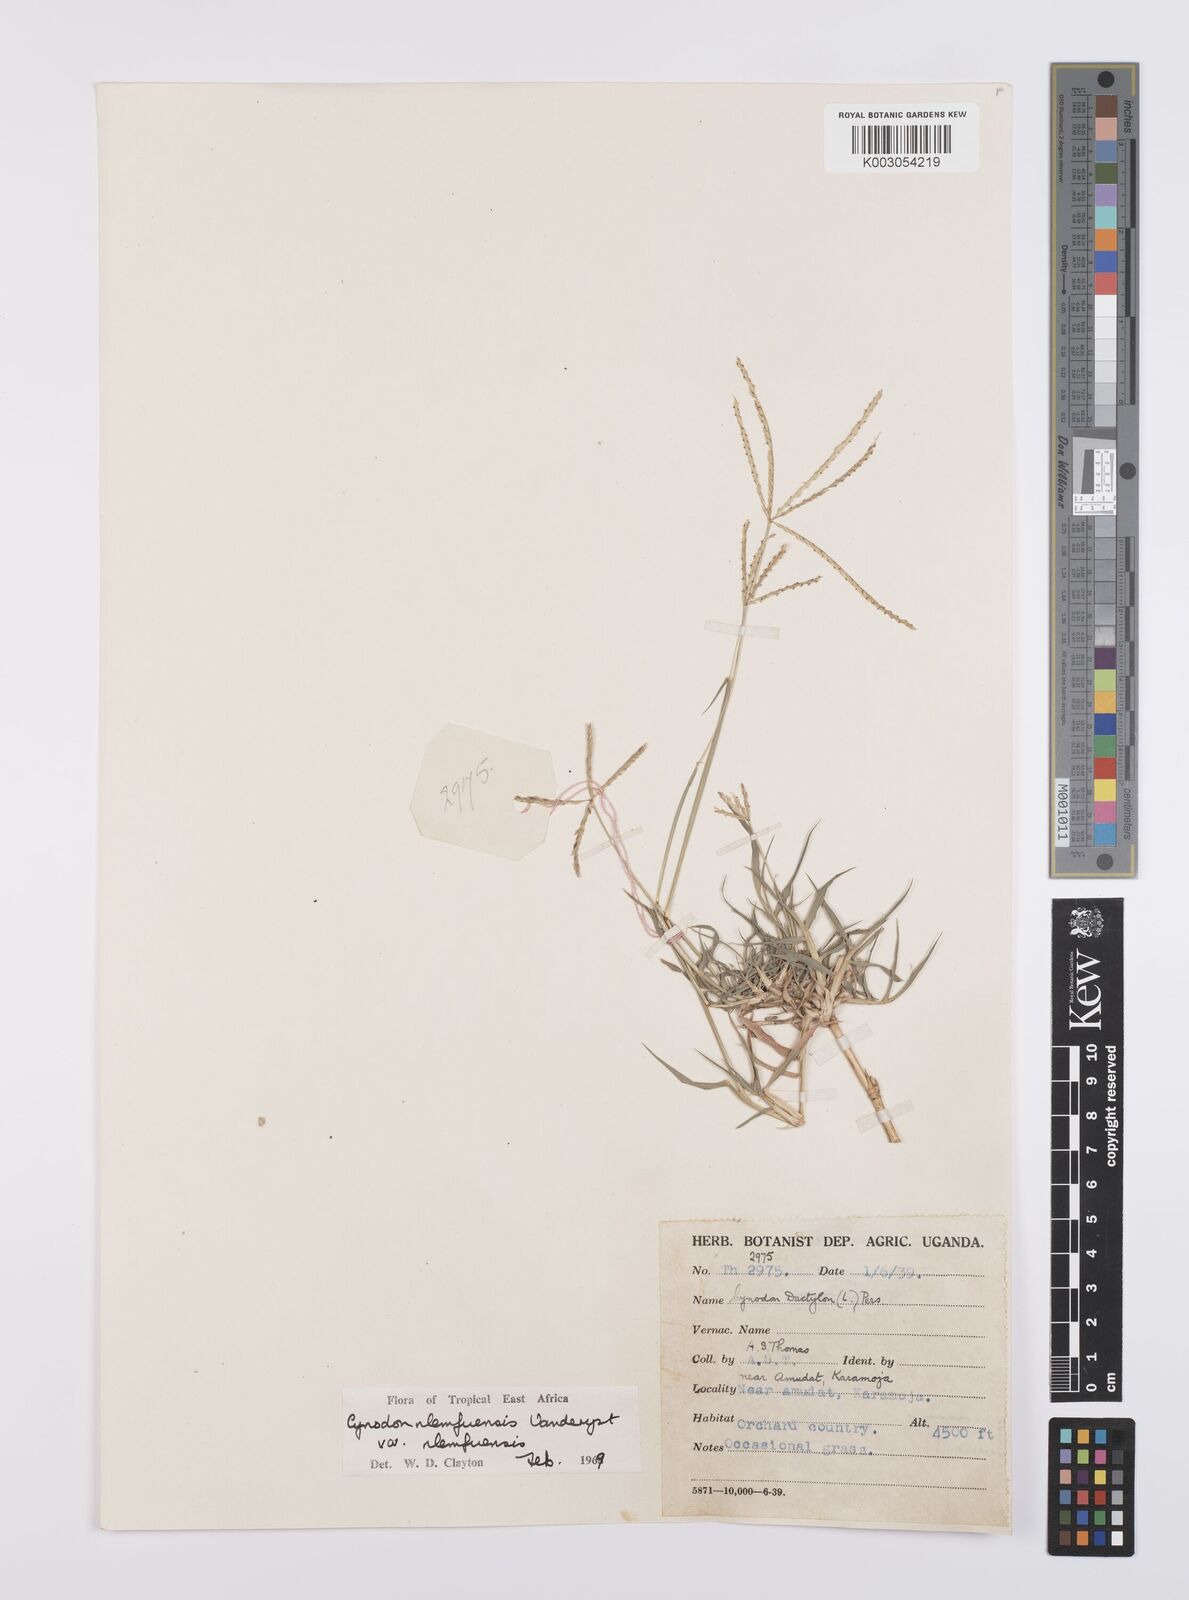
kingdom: Plantae
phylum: Tracheophyta
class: Liliopsida
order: Poales
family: Poaceae
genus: Cynodon
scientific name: Cynodon nlemfuensis
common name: African bermudagrass
